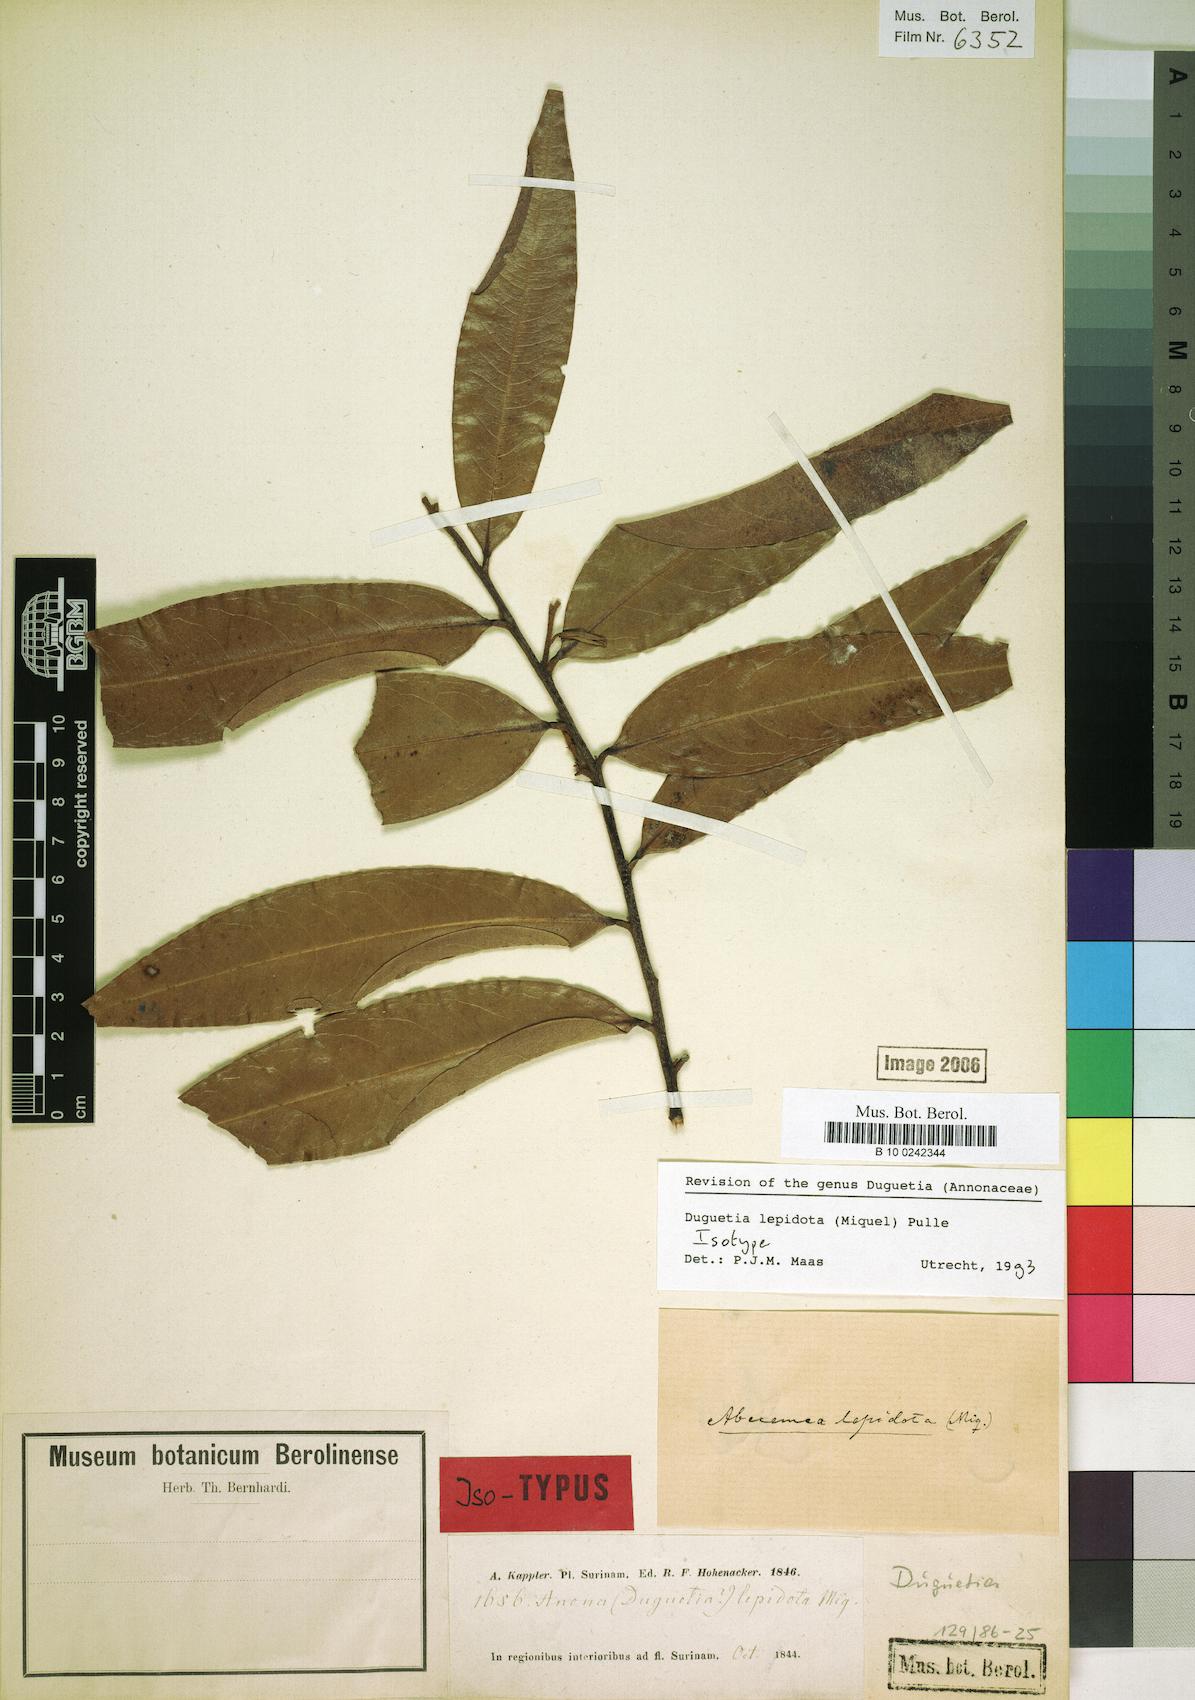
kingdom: Plantae
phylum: Tracheophyta
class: Magnoliopsida
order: Magnoliales
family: Annonaceae
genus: Duguetia
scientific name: Duguetia lepidota
